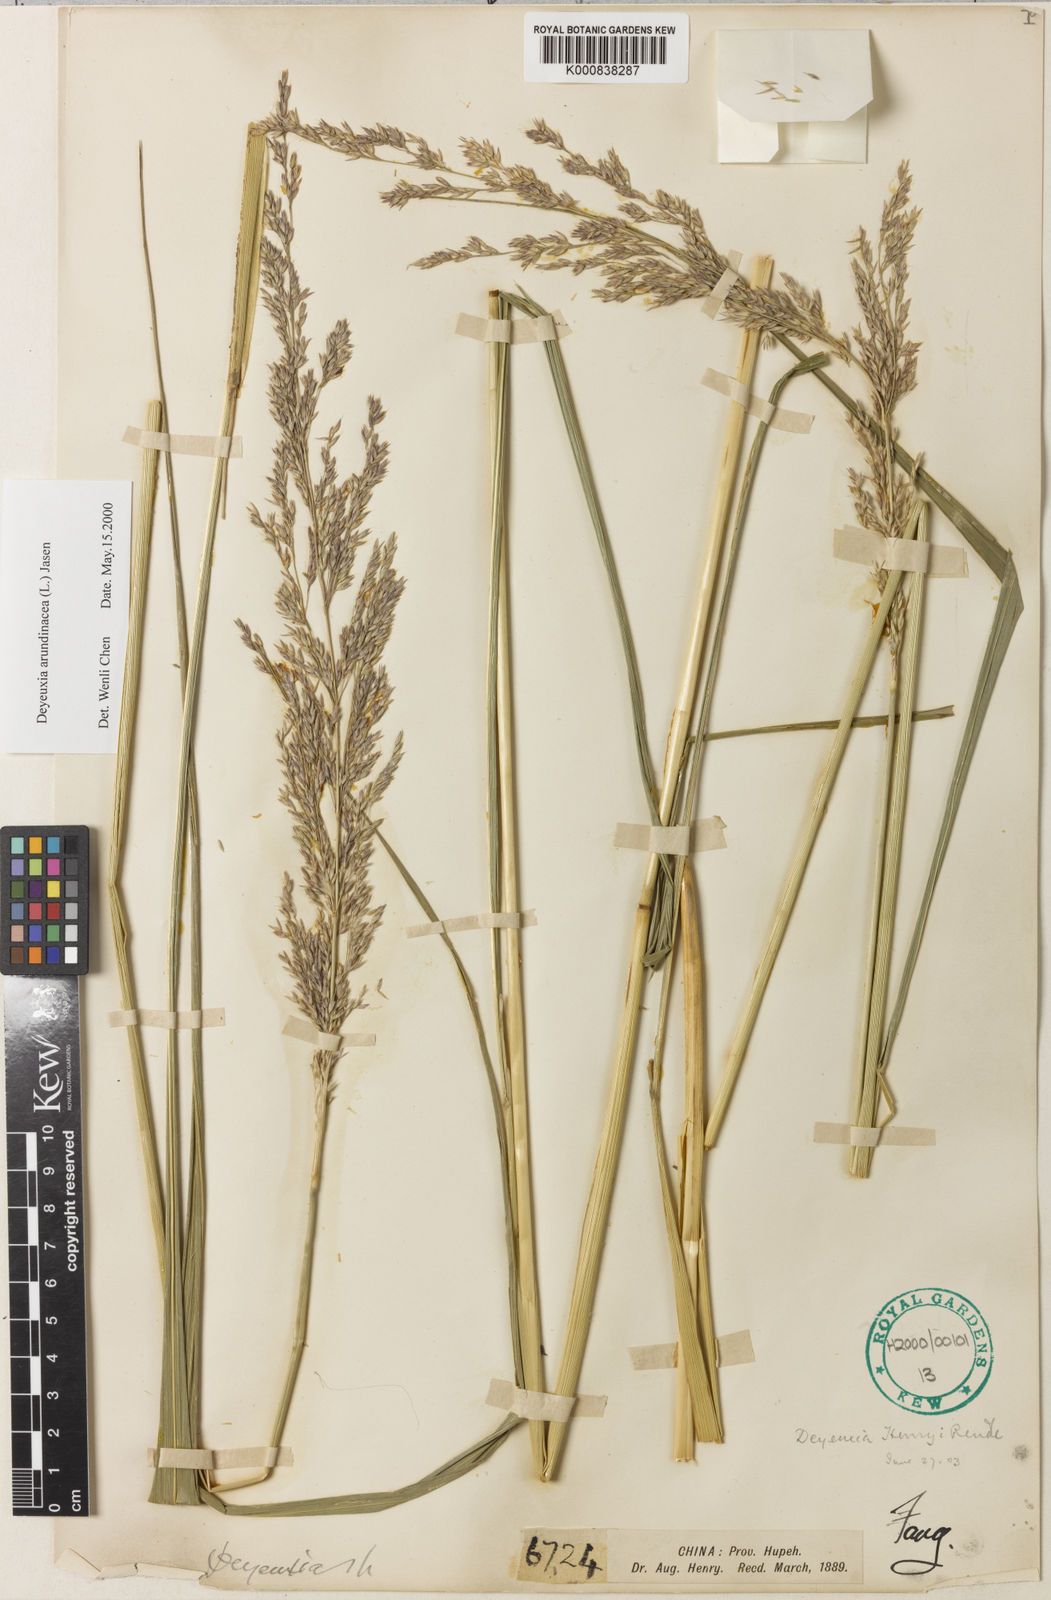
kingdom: Plantae
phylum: Tracheophyta
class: Liliopsida
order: Poales
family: Poaceae
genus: Calamagrostis
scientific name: Calamagrostis arundinacea
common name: Metskastik
